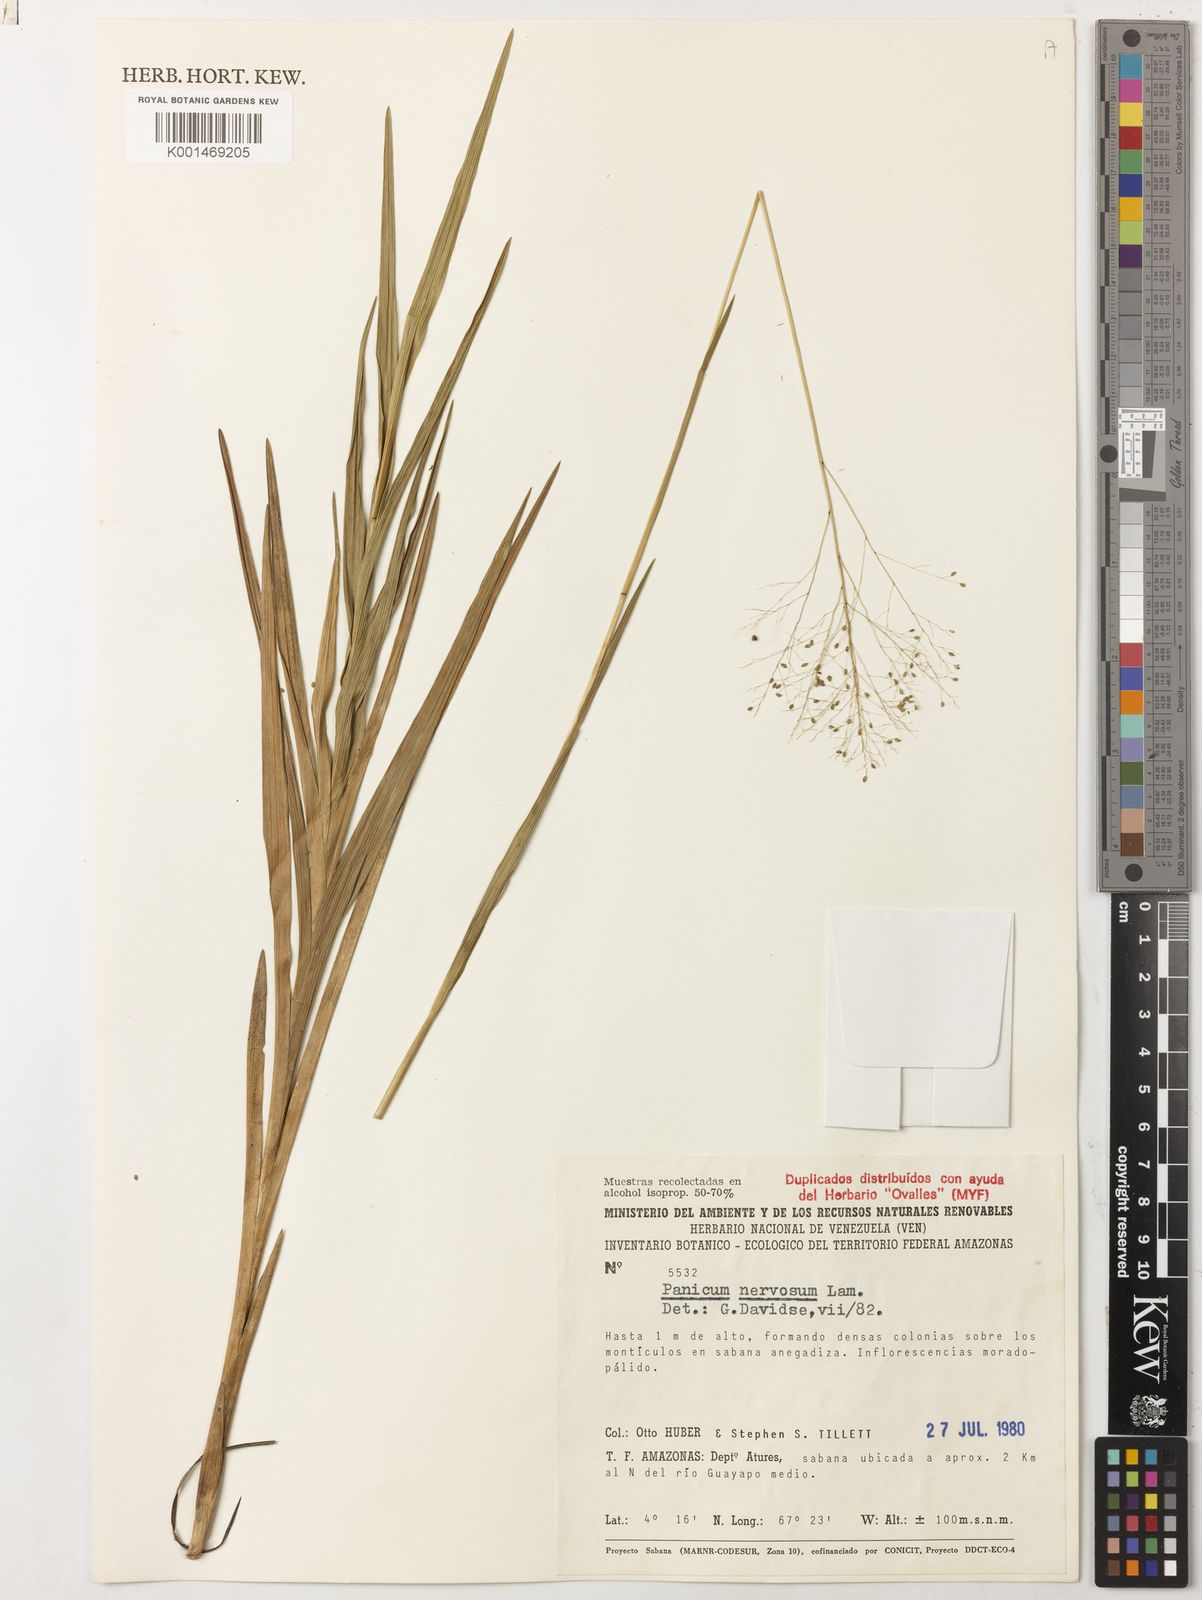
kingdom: Plantae
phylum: Tracheophyta
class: Liliopsida
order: Poales
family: Poaceae
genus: Trichanthecium
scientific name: Trichanthecium nervosum
